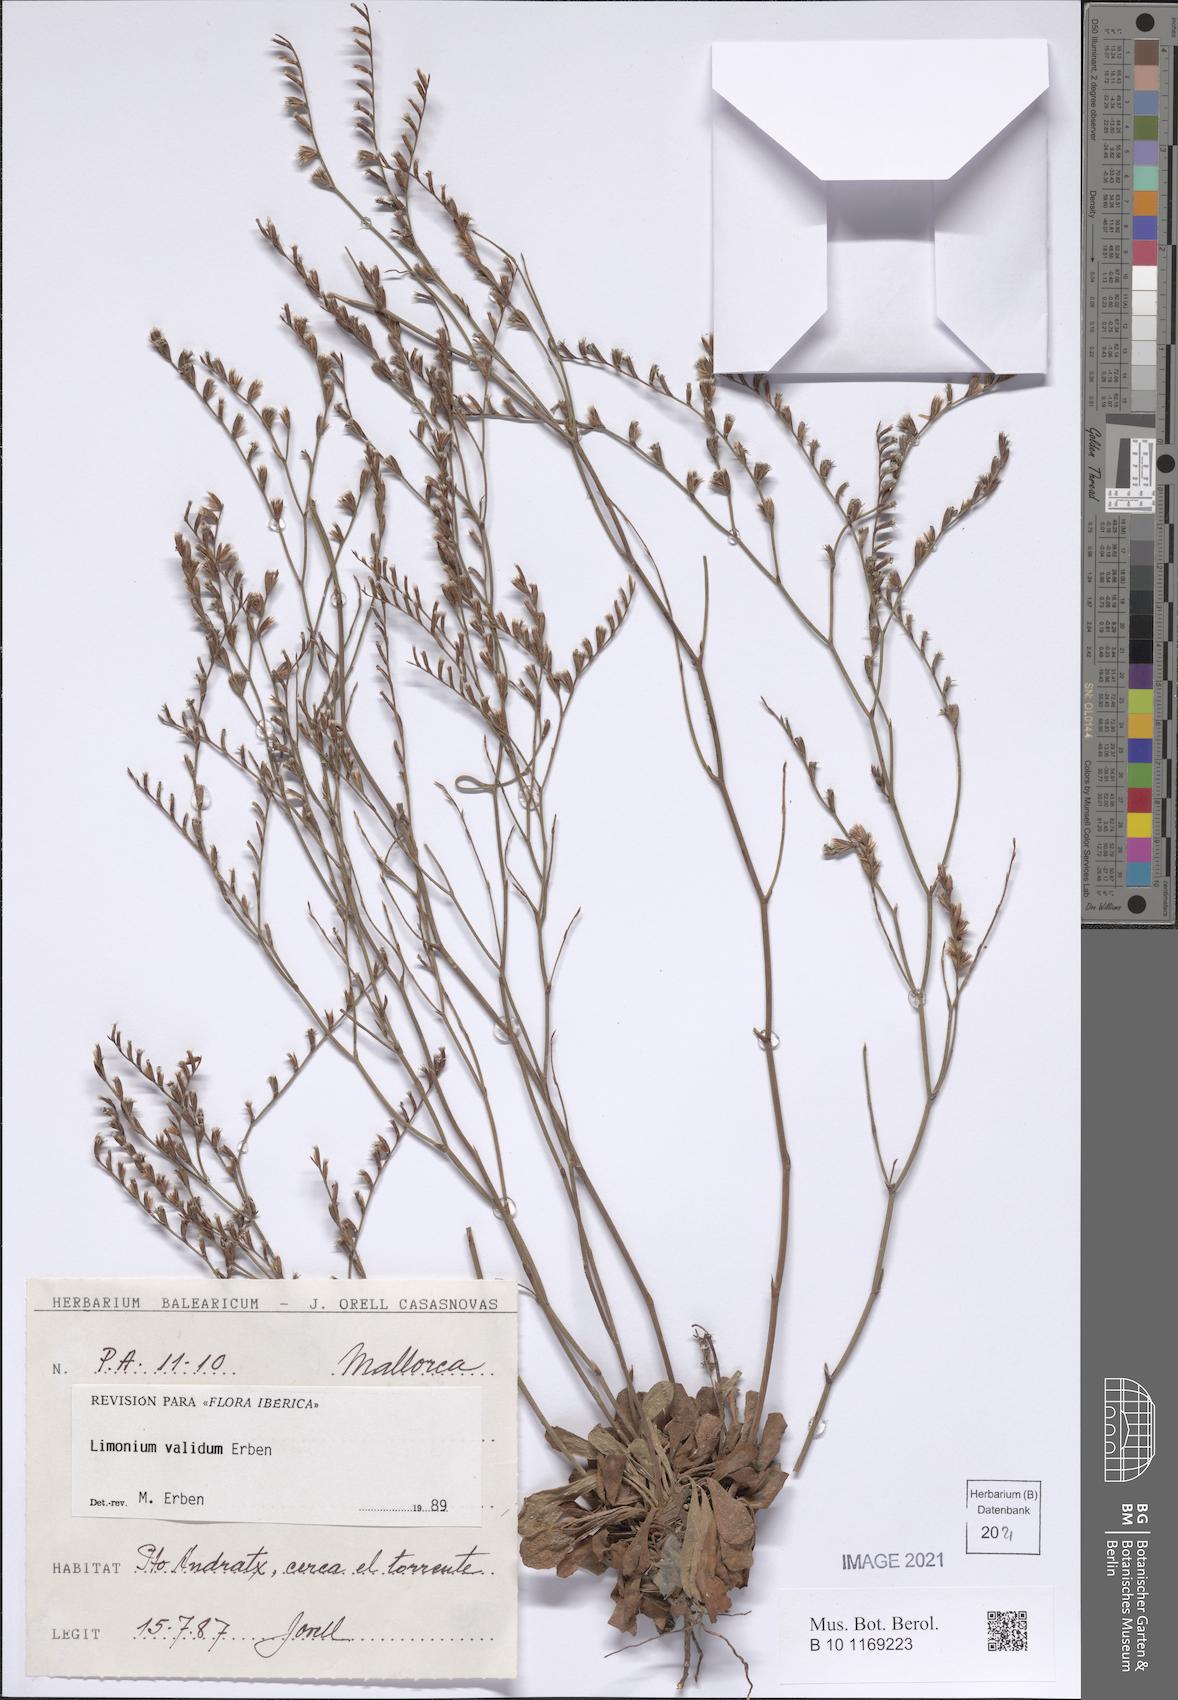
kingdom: Plantae
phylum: Tracheophyta
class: Magnoliopsida
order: Caryophyllales
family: Plumbaginaceae
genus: Limonium
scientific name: Limonium validum
